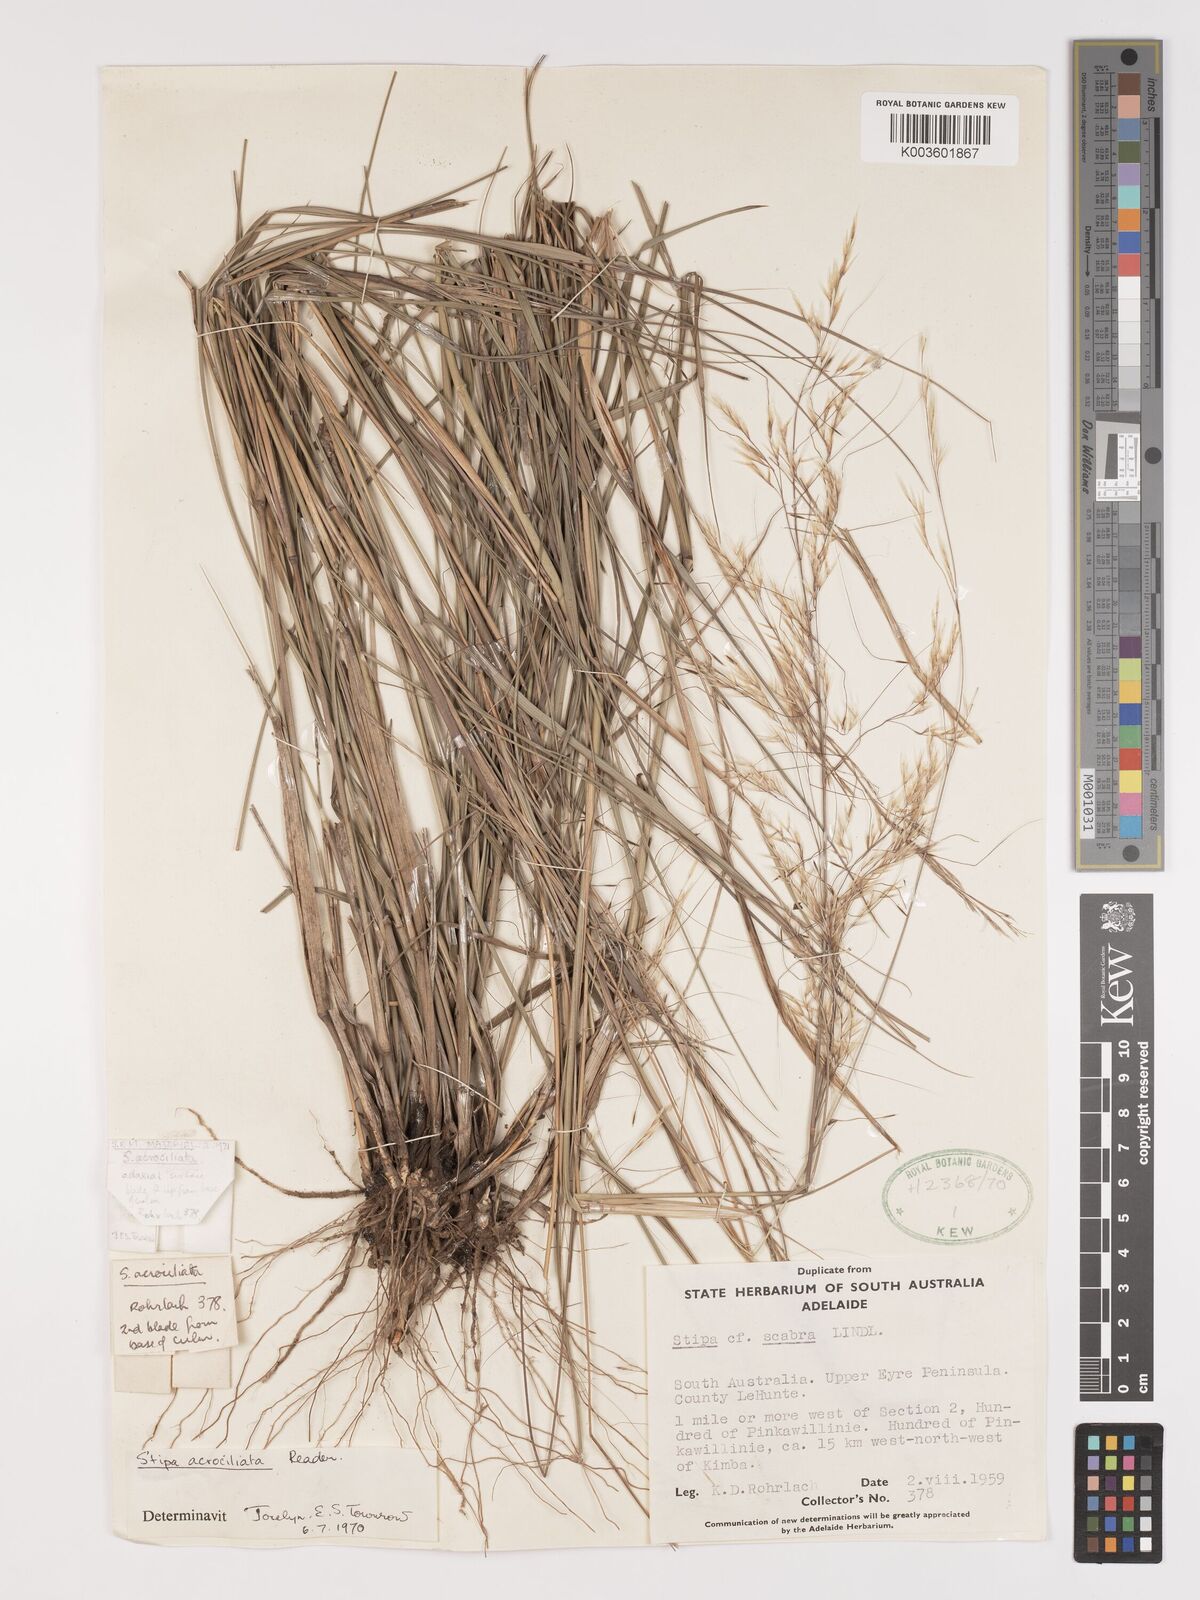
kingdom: Plantae
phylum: Tracheophyta
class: Liliopsida
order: Poales
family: Poaceae
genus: Austrostipa
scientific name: Austrostipa nitida
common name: Balcarra grass
